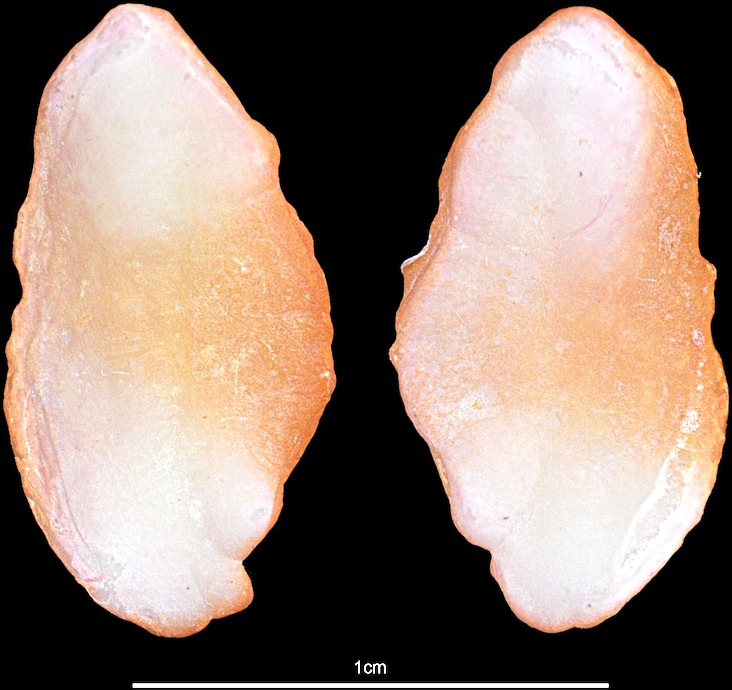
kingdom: Animalia
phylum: Chordata
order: Gadiformes
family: Lotidae
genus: Brosme
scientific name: Brosme brosme
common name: Cusk
